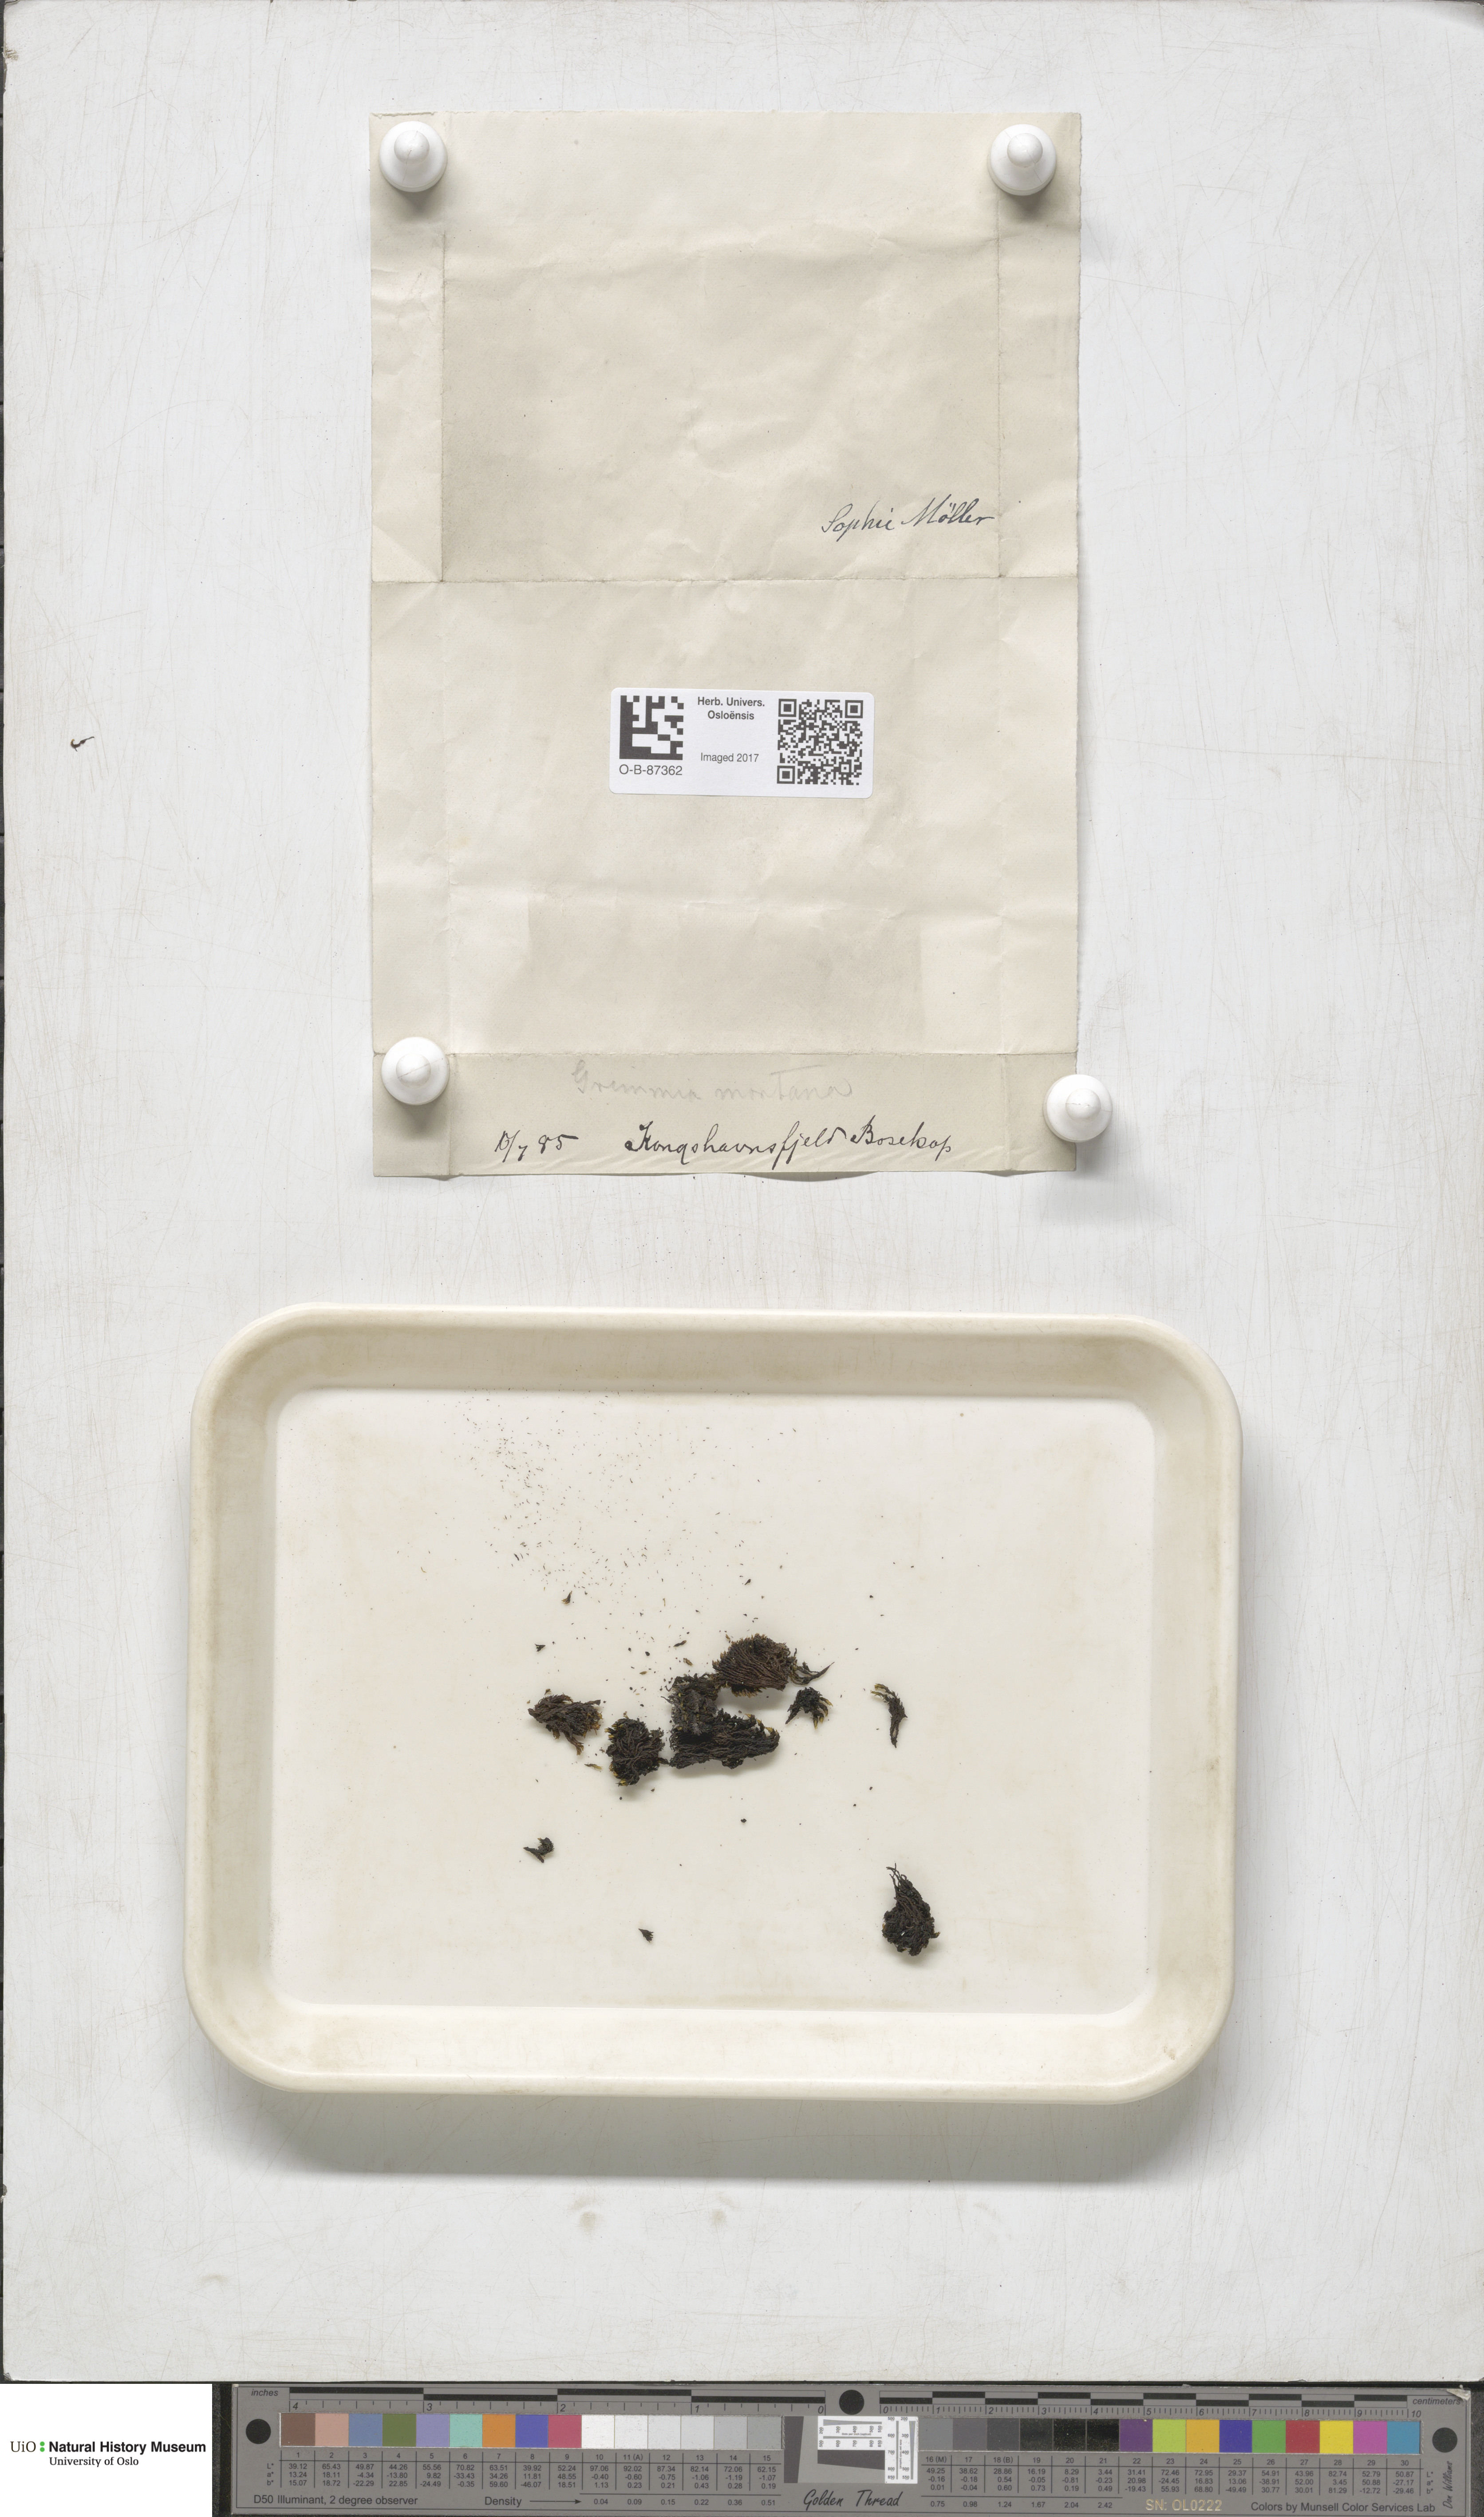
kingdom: Plantae
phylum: Bryophyta
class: Bryopsida
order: Grimmiales
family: Grimmiaceae
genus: Grimmia
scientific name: Grimmia montana
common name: Sun grimmia
